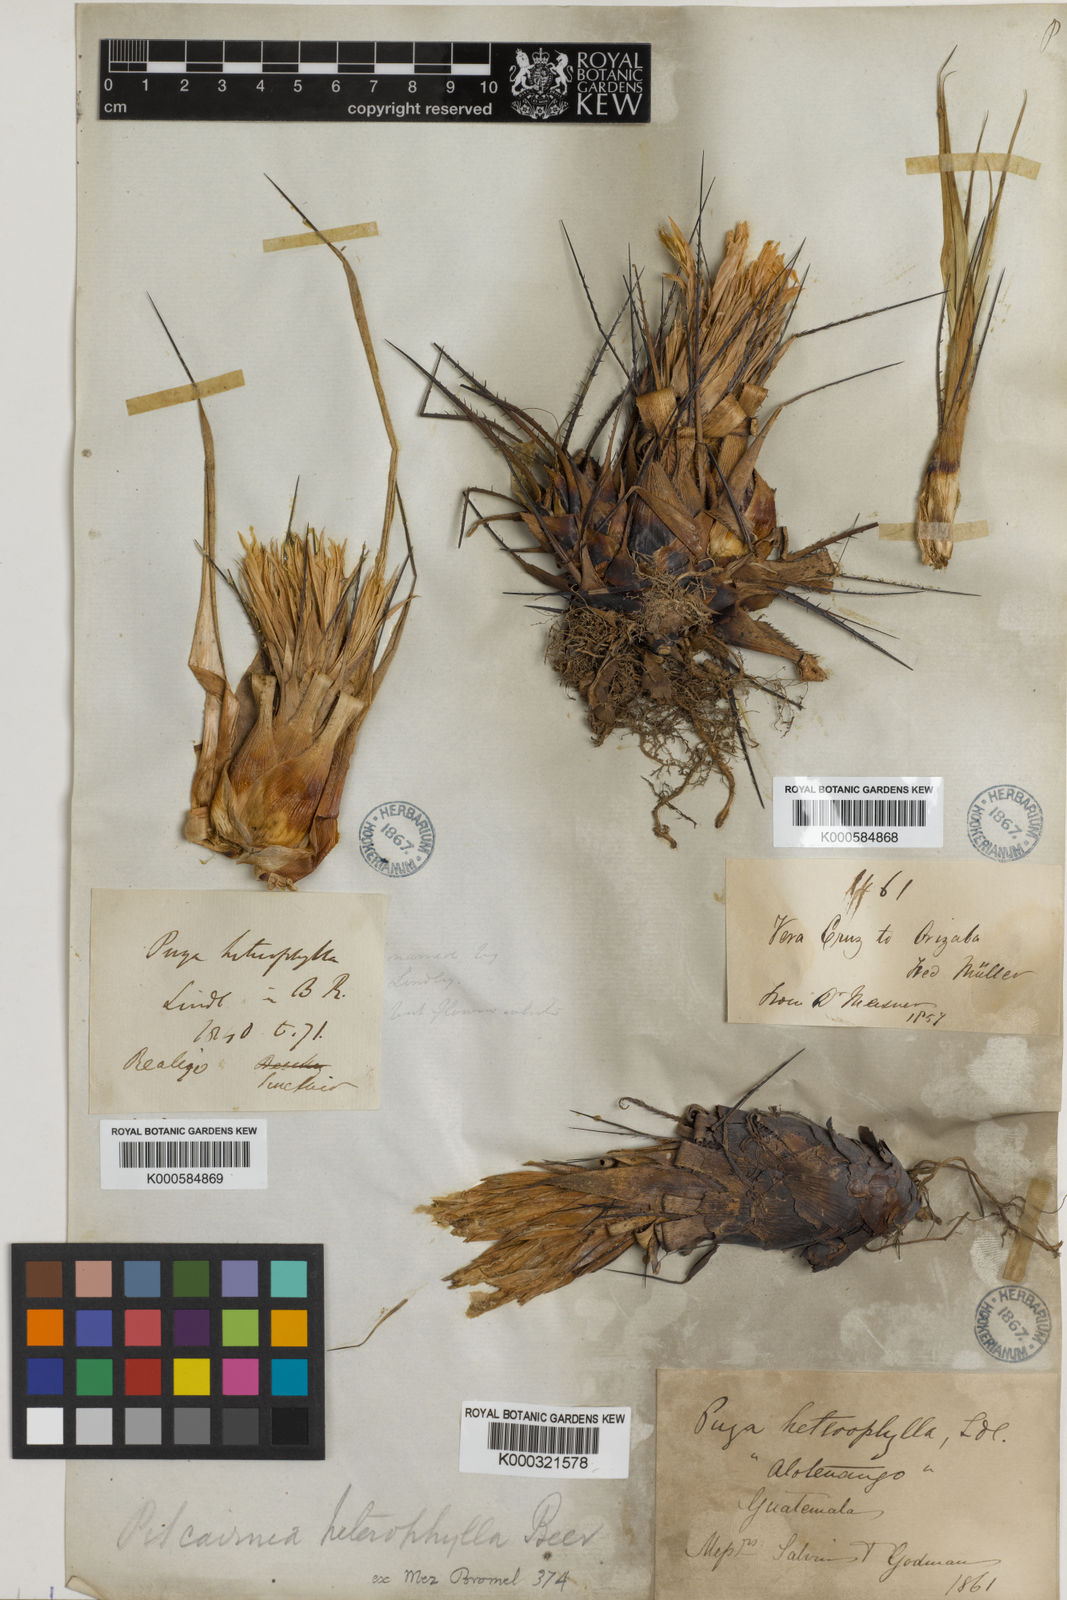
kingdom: Plantae
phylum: Tracheophyta
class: Liliopsida
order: Poales
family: Bromeliaceae
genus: Pitcairnia
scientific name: Pitcairnia heterophylla
